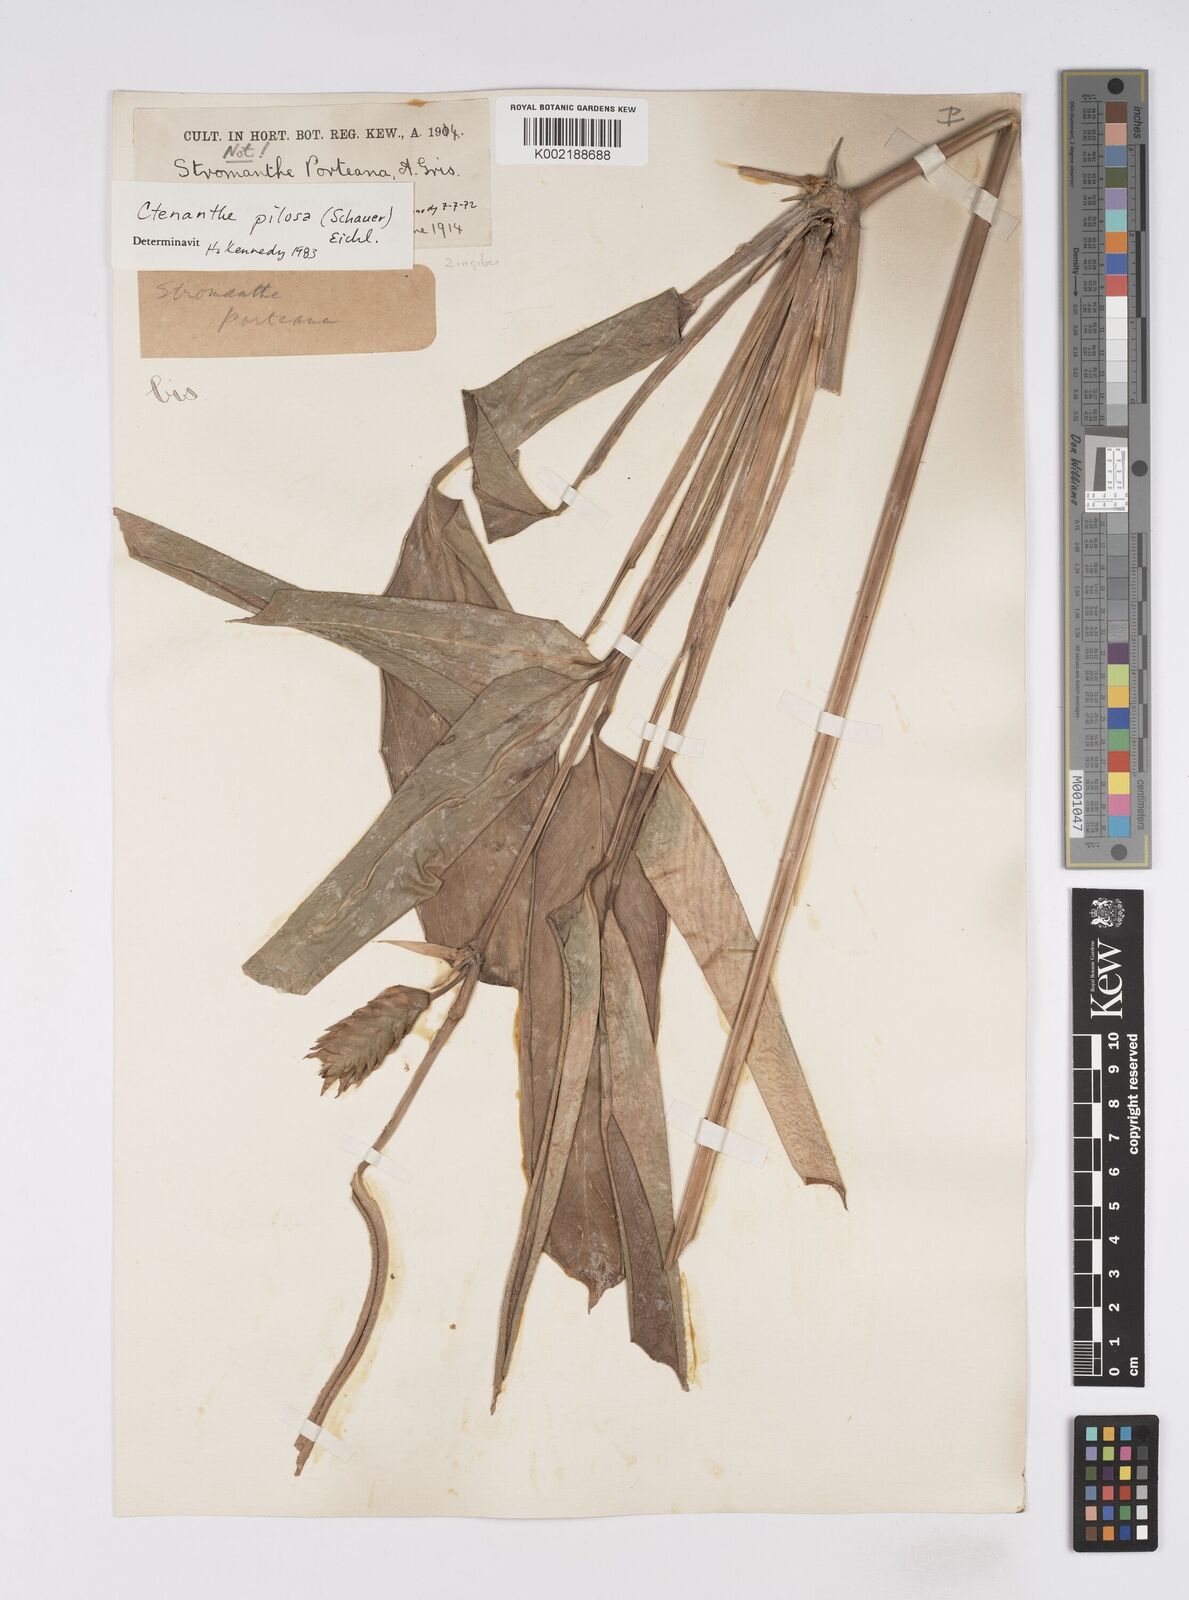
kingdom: Plantae
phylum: Tracheophyta
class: Liliopsida
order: Zingiberales
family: Marantaceae
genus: Ctenanthe
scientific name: Ctenanthe marantifolia
